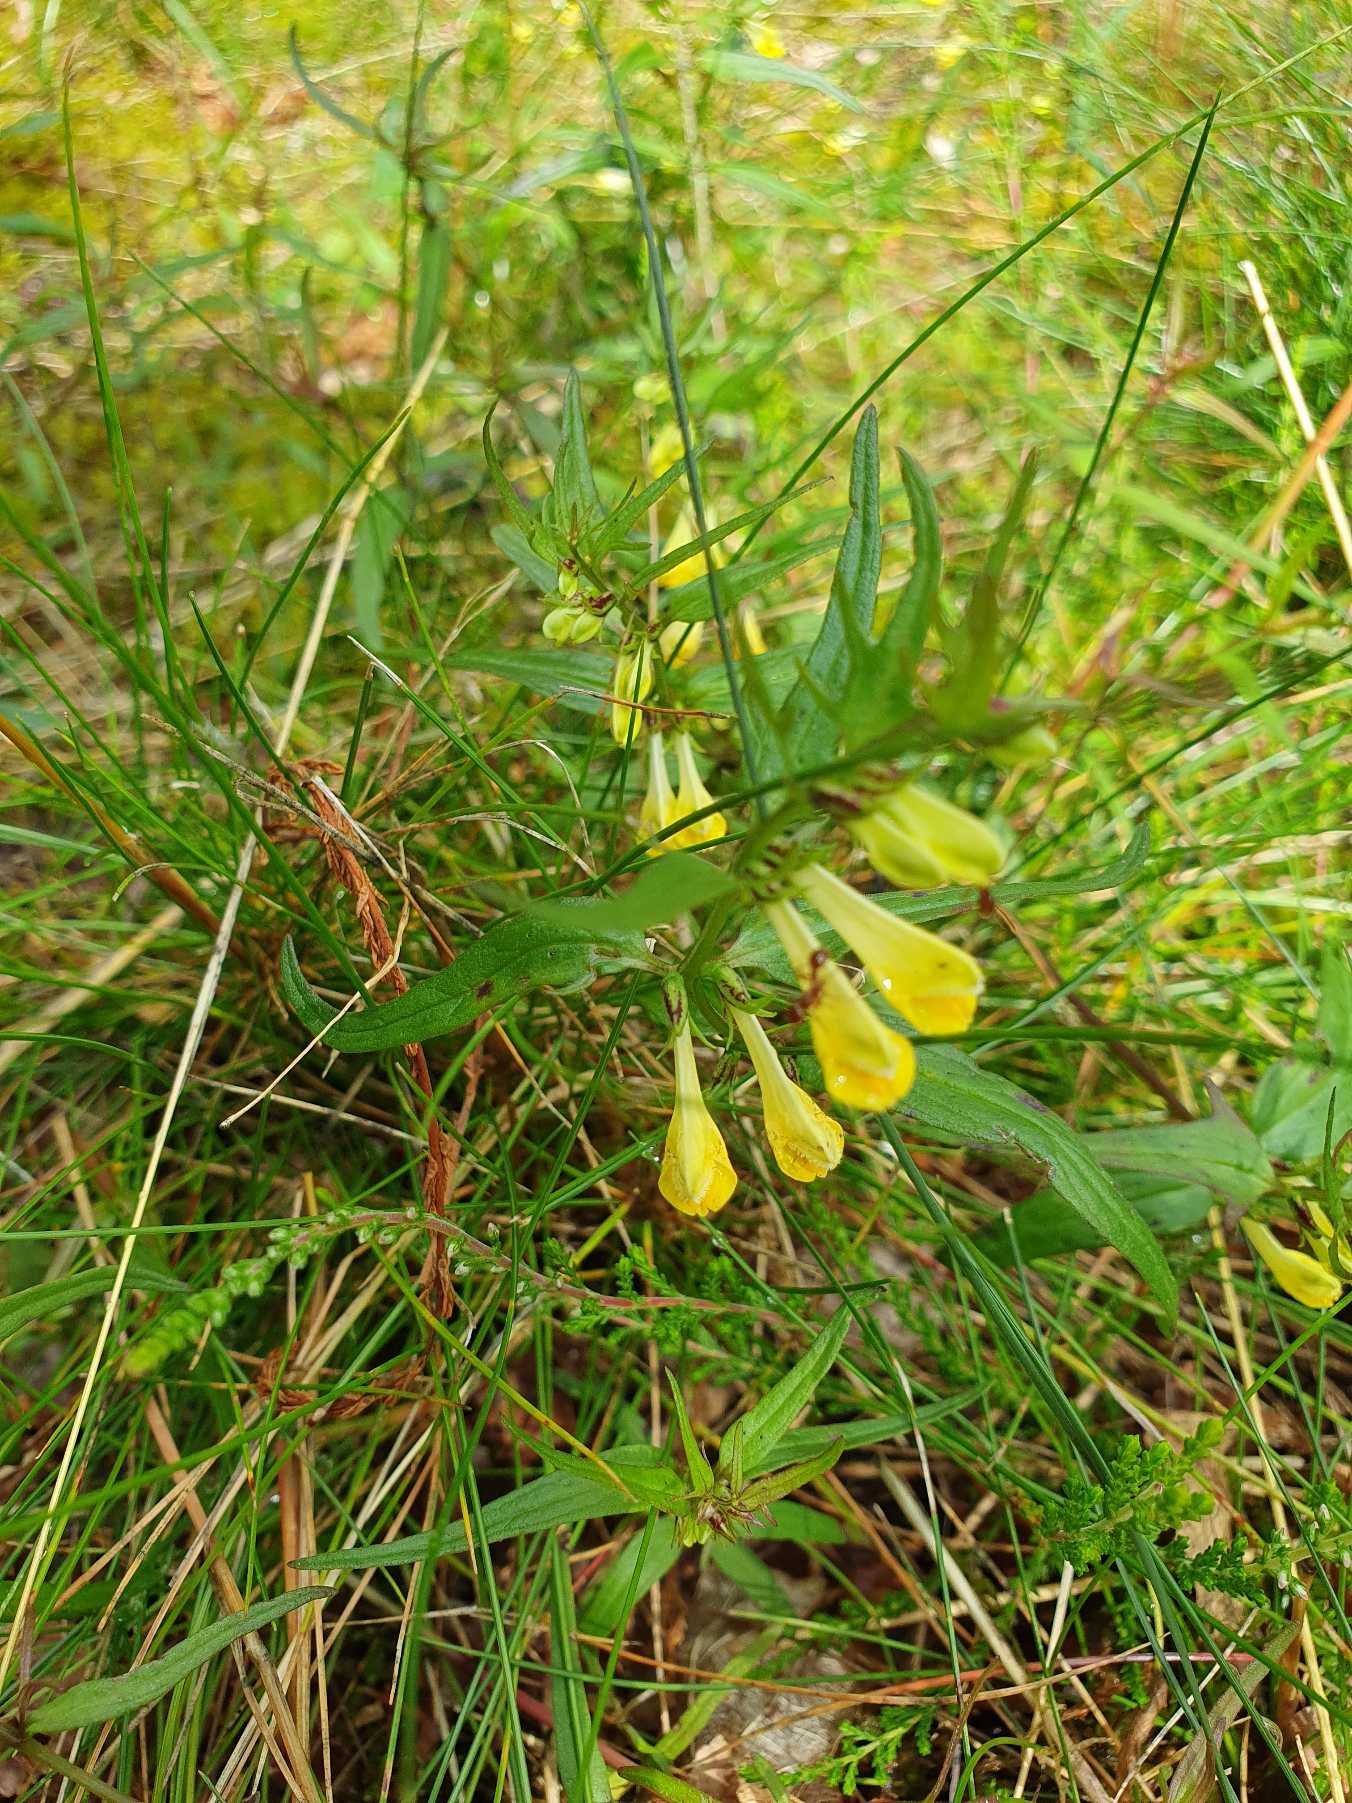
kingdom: Plantae
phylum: Tracheophyta
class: Magnoliopsida
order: Lamiales
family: Orobanchaceae
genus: Melampyrum
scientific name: Melampyrum pratense
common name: Almindelig kohvede
